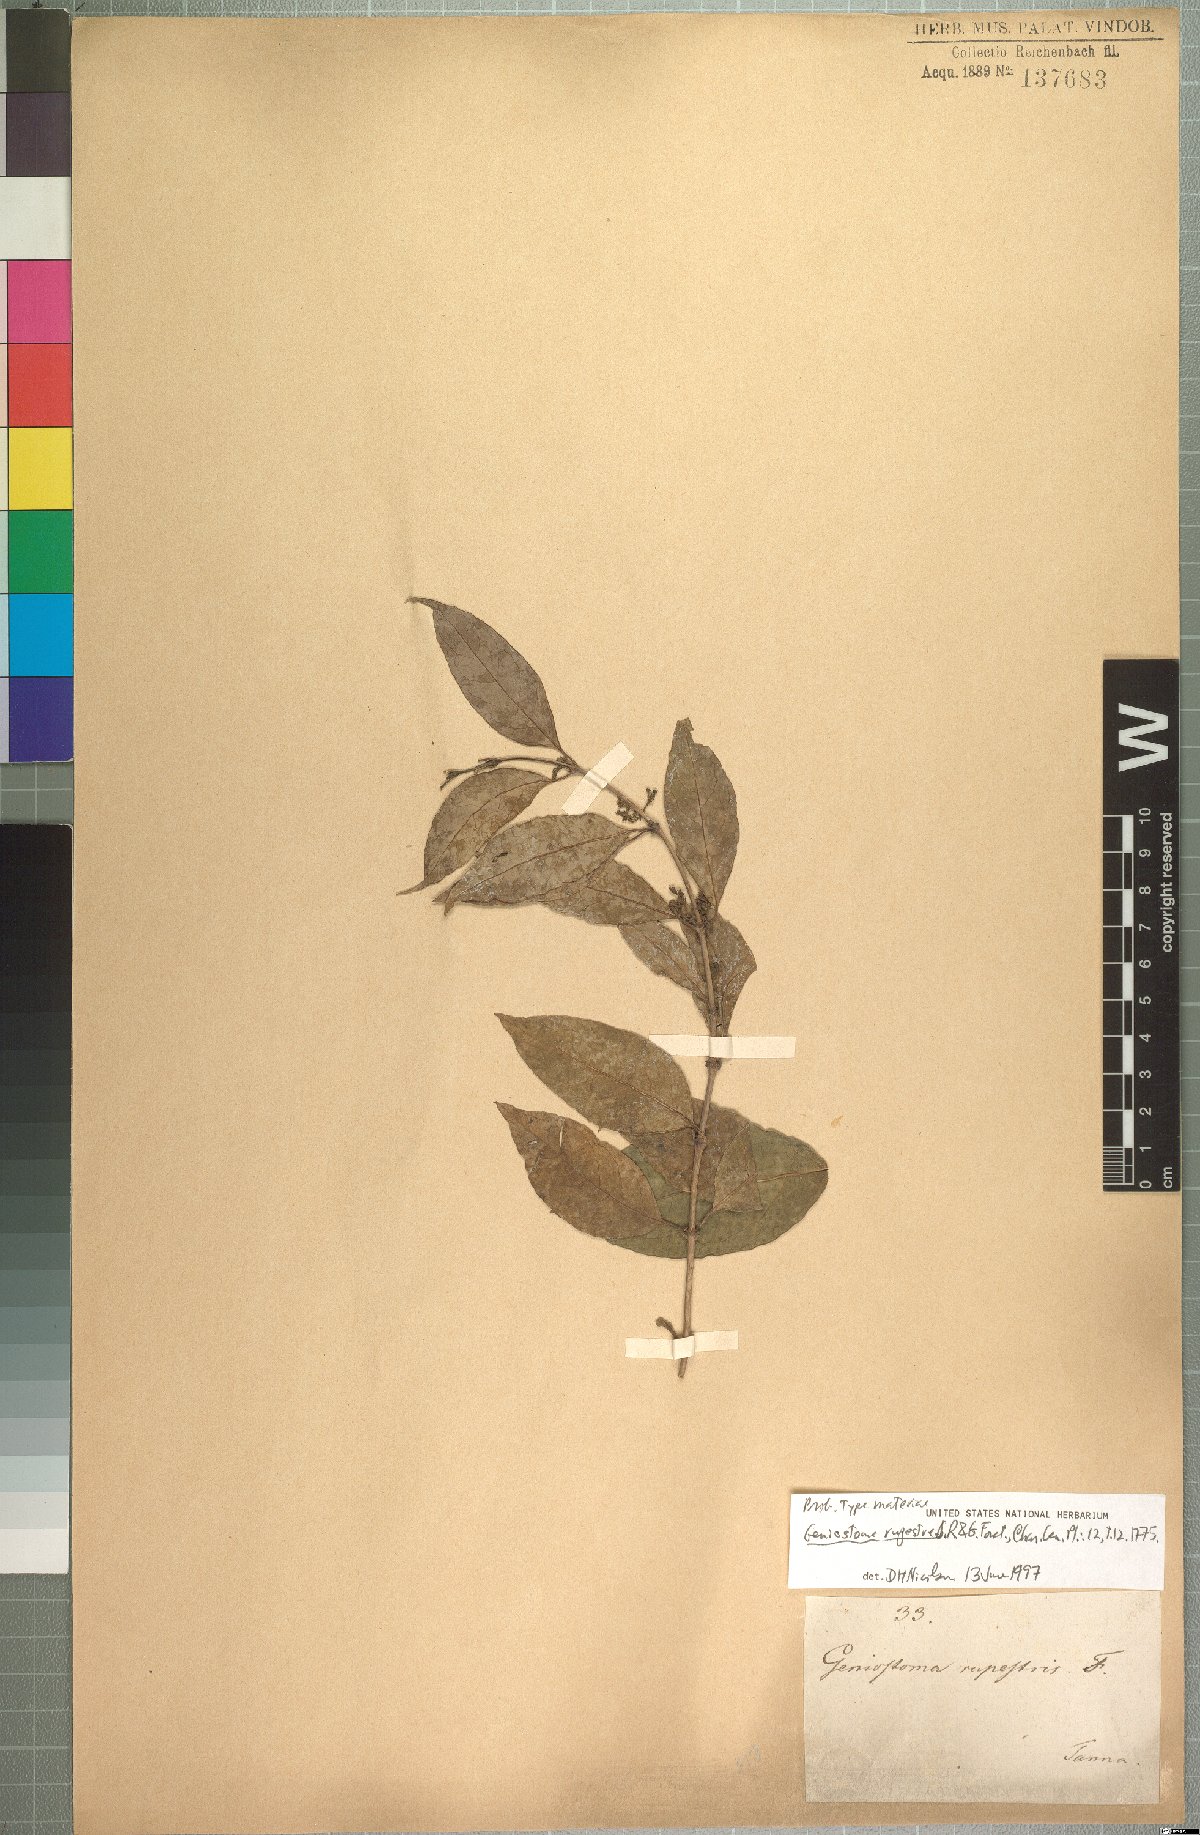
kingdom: Plantae
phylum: Tracheophyta
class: Magnoliopsida
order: Gentianales
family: Loganiaceae
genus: Geniostoma
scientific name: Geniostoma rupestre
